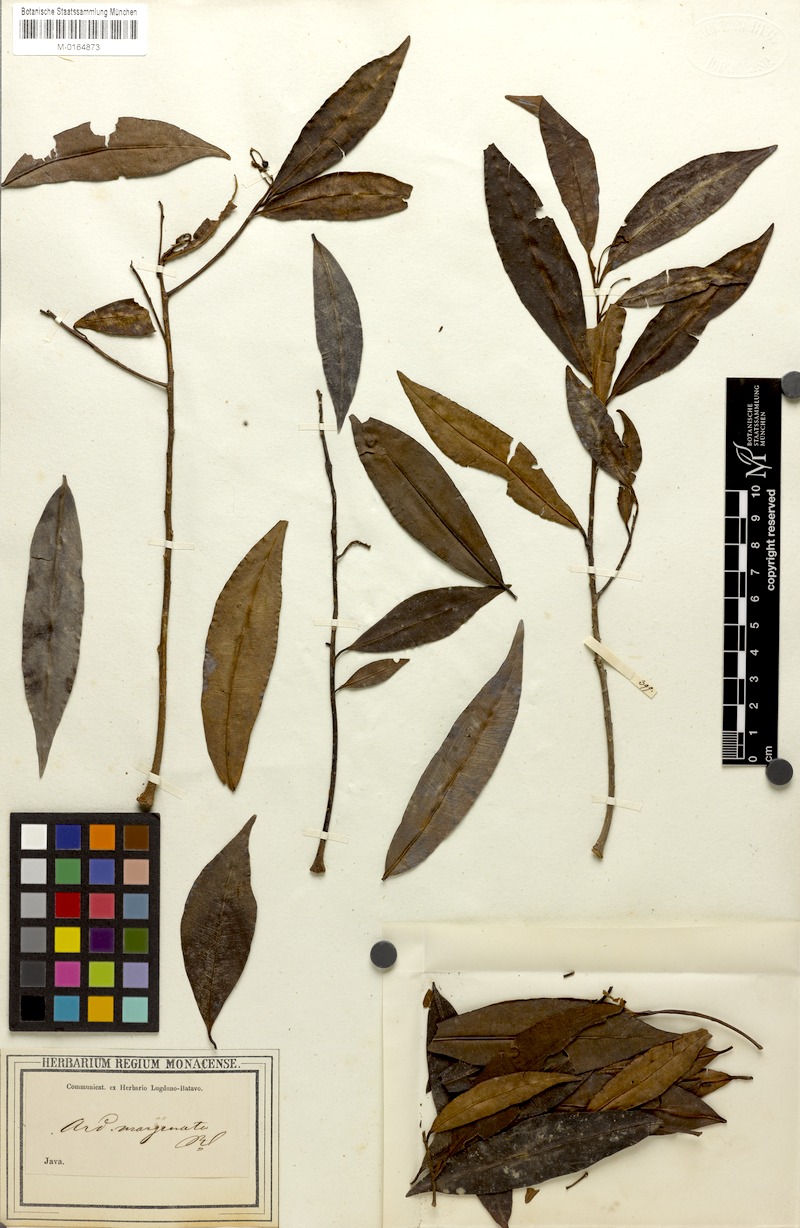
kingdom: Plantae
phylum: Tracheophyta
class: Magnoliopsida
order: Ericales
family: Primulaceae
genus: Ardisia
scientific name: Ardisia marginata
